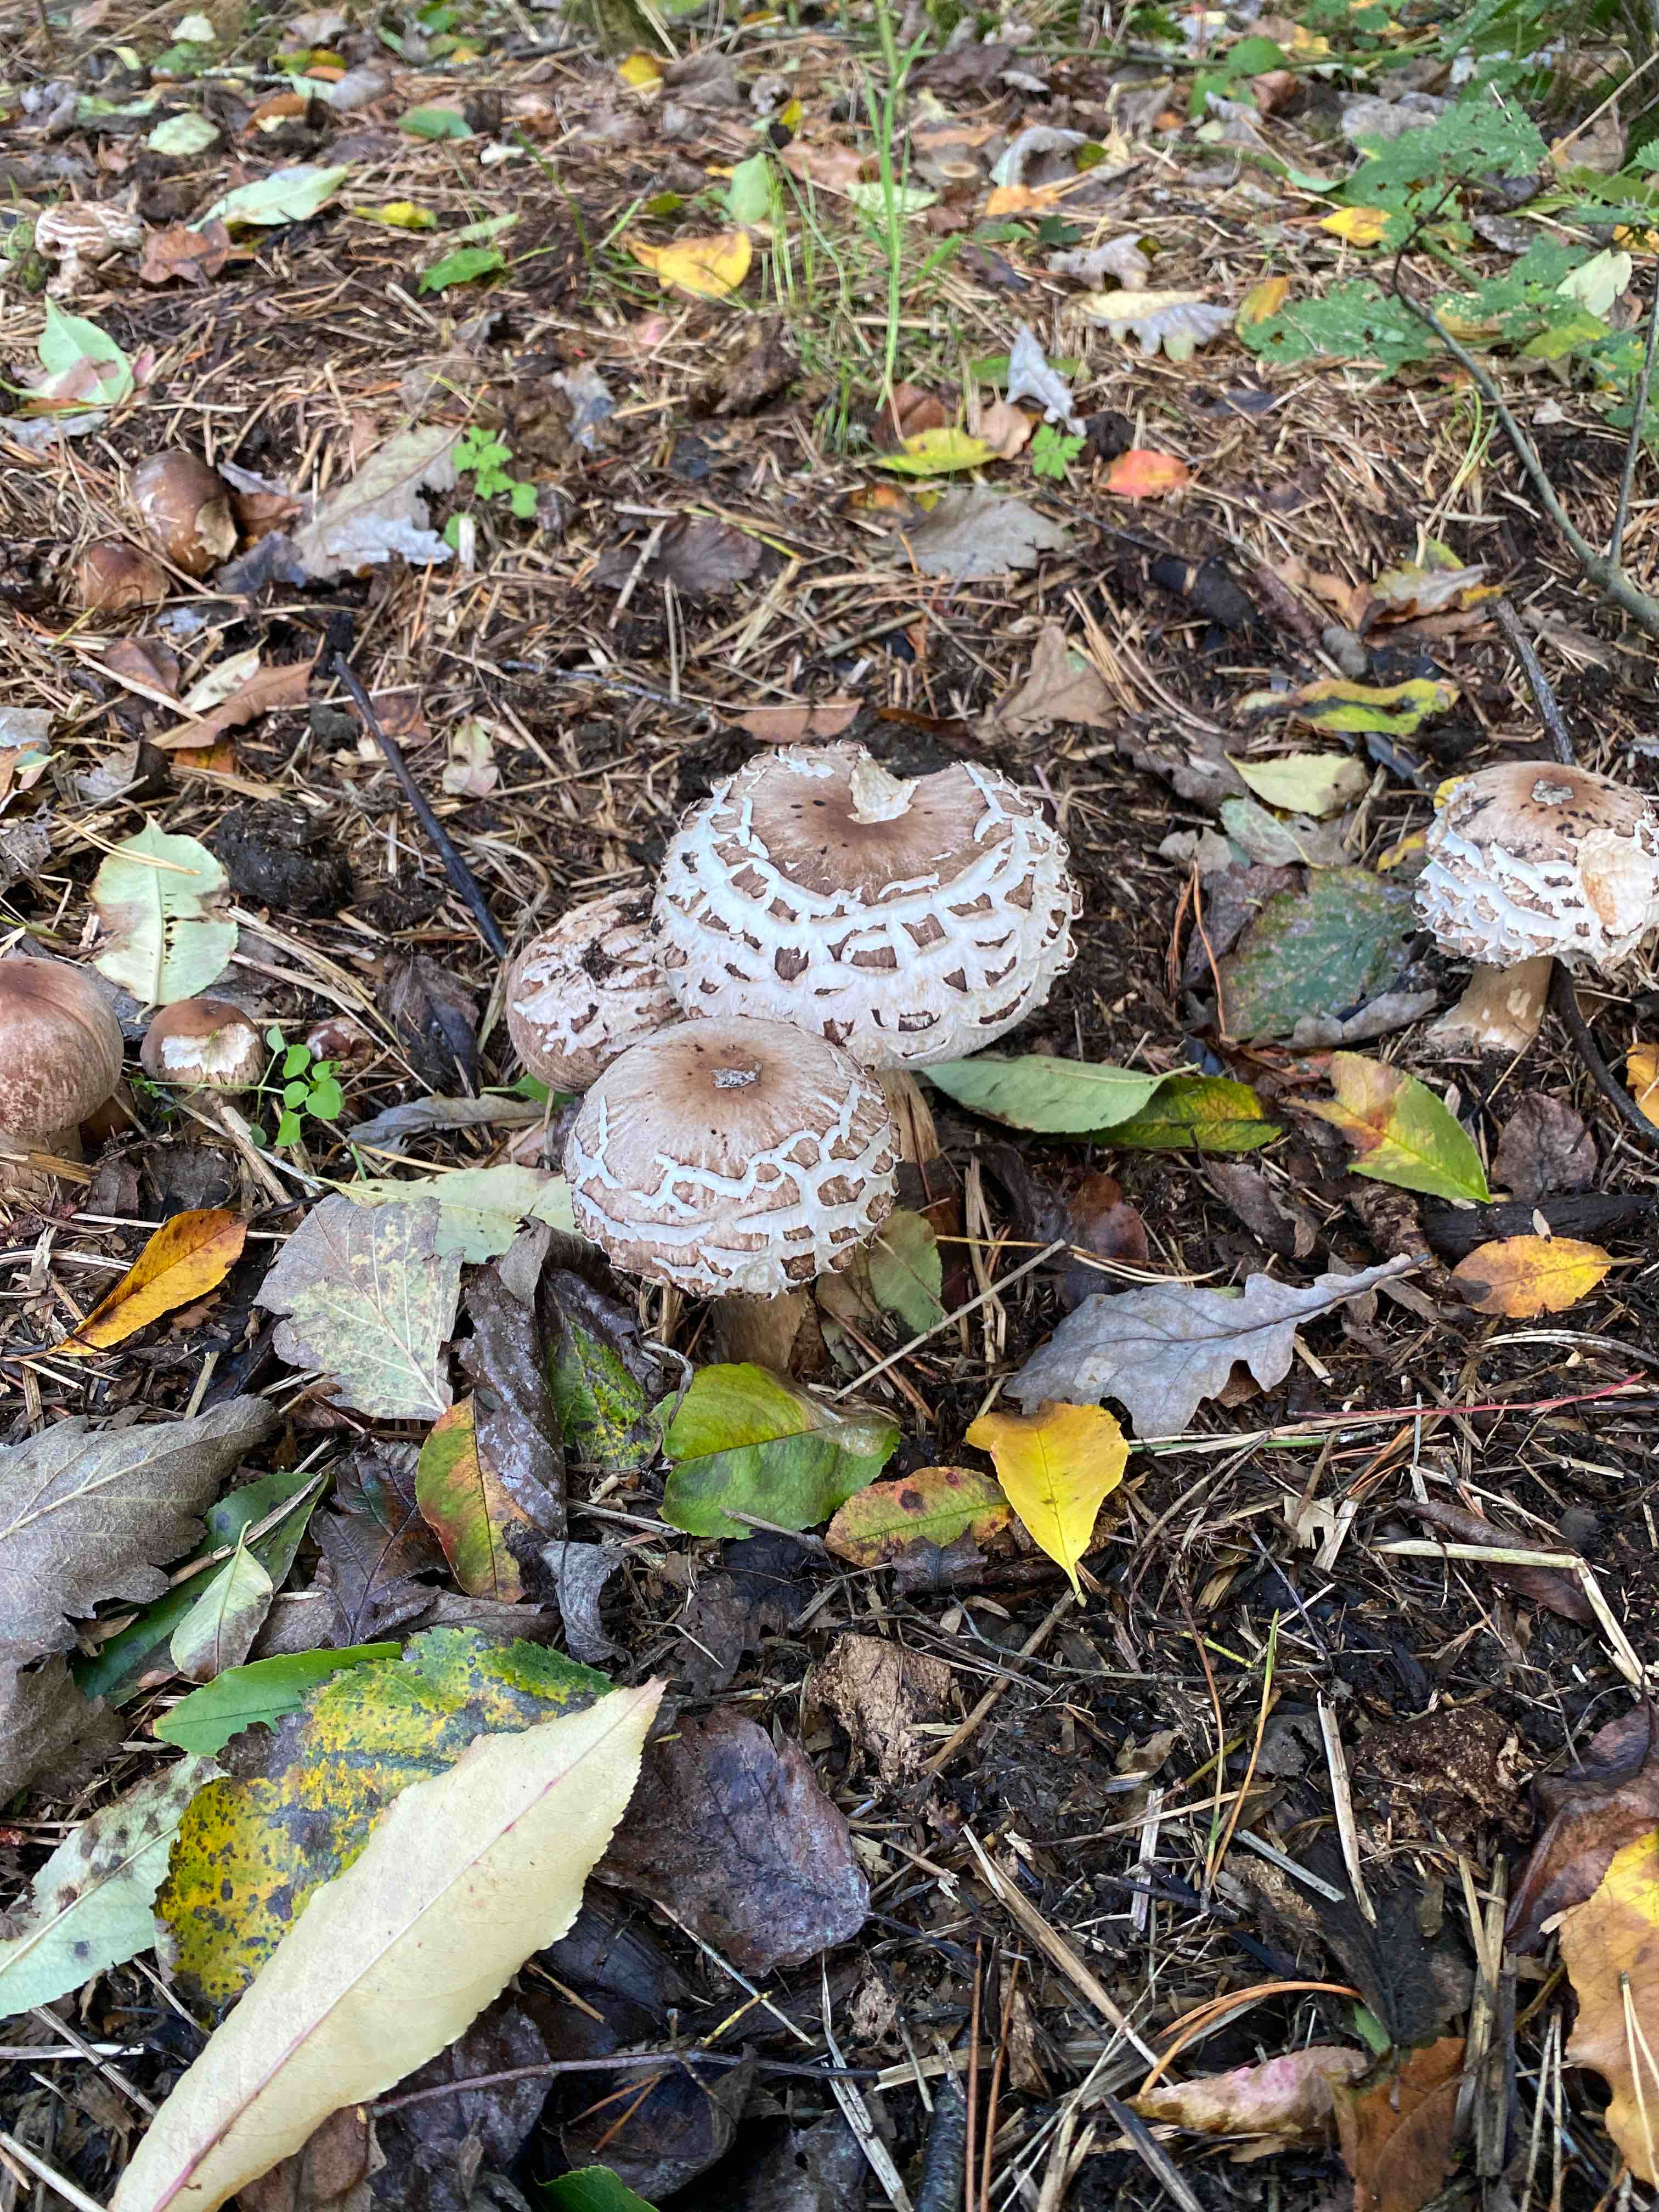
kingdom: Fungi
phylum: Basidiomycota
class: Agaricomycetes
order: Agaricales
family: Agaricaceae
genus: Chlorophyllum
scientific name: Chlorophyllum brunneum
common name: giftig rabarberhat
